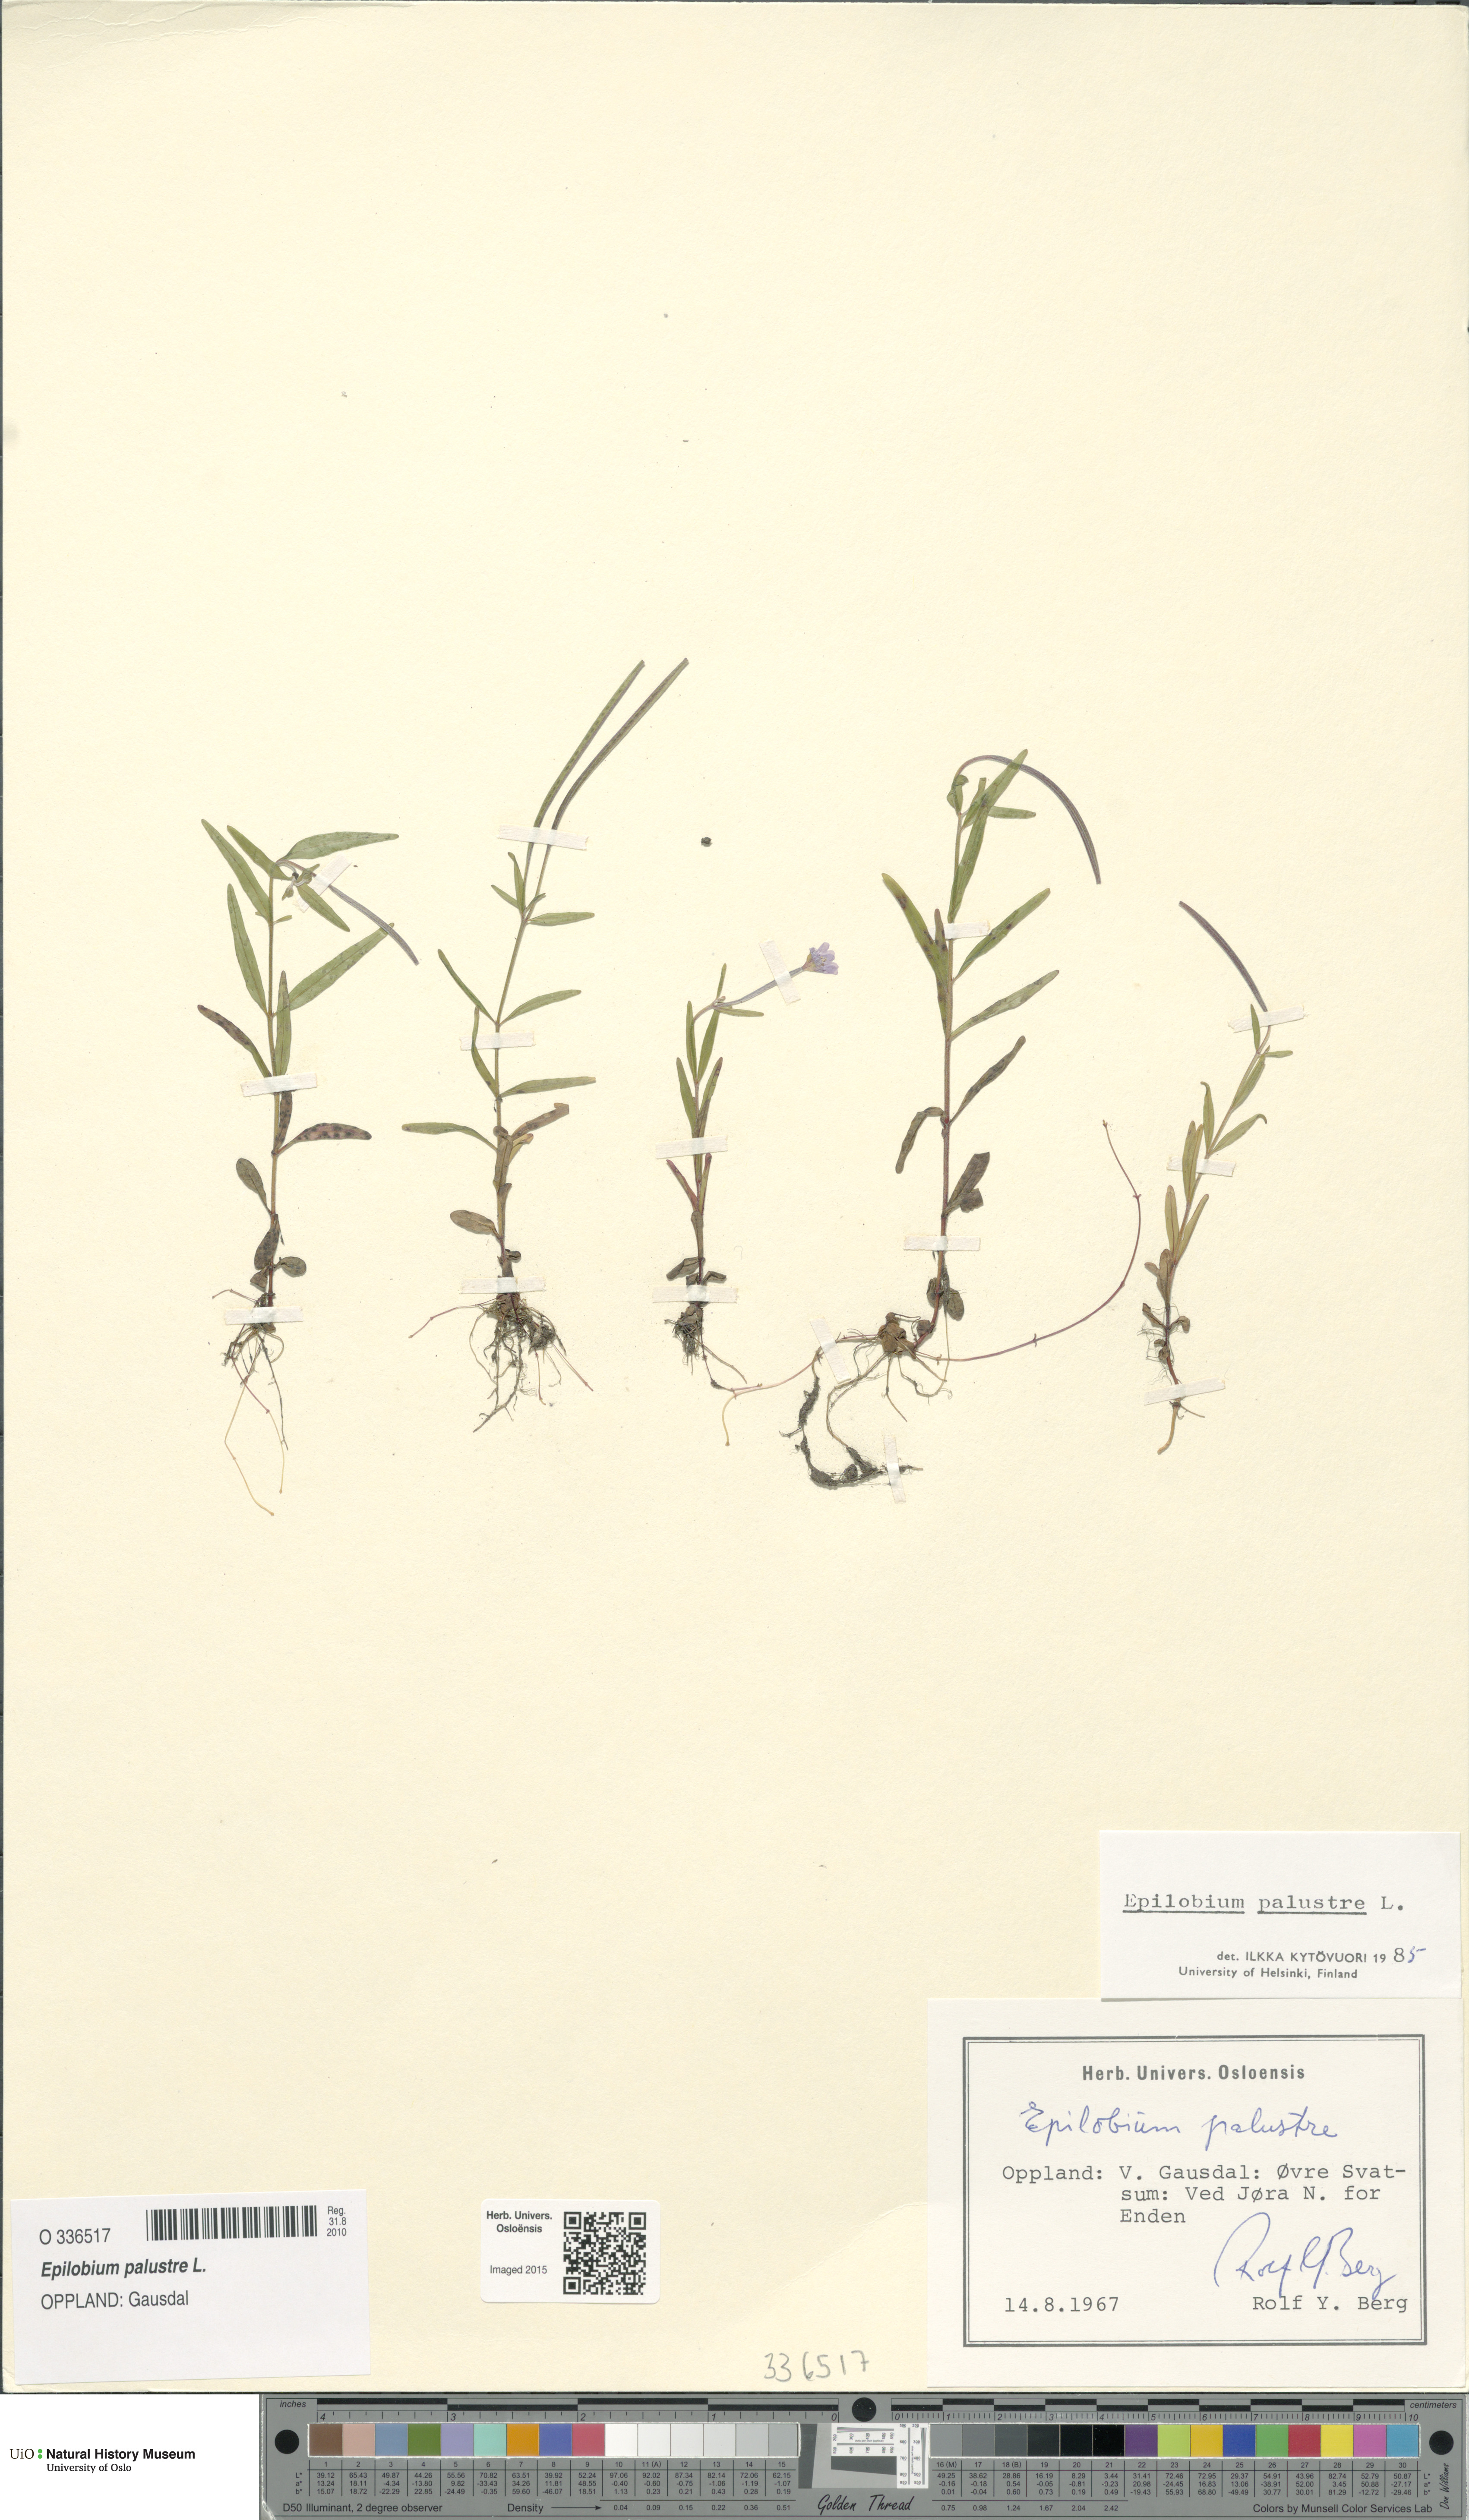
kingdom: Plantae
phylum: Tracheophyta
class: Magnoliopsida
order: Myrtales
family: Onagraceae
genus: Epilobium
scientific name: Epilobium palustre
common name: Marsh willowherb
